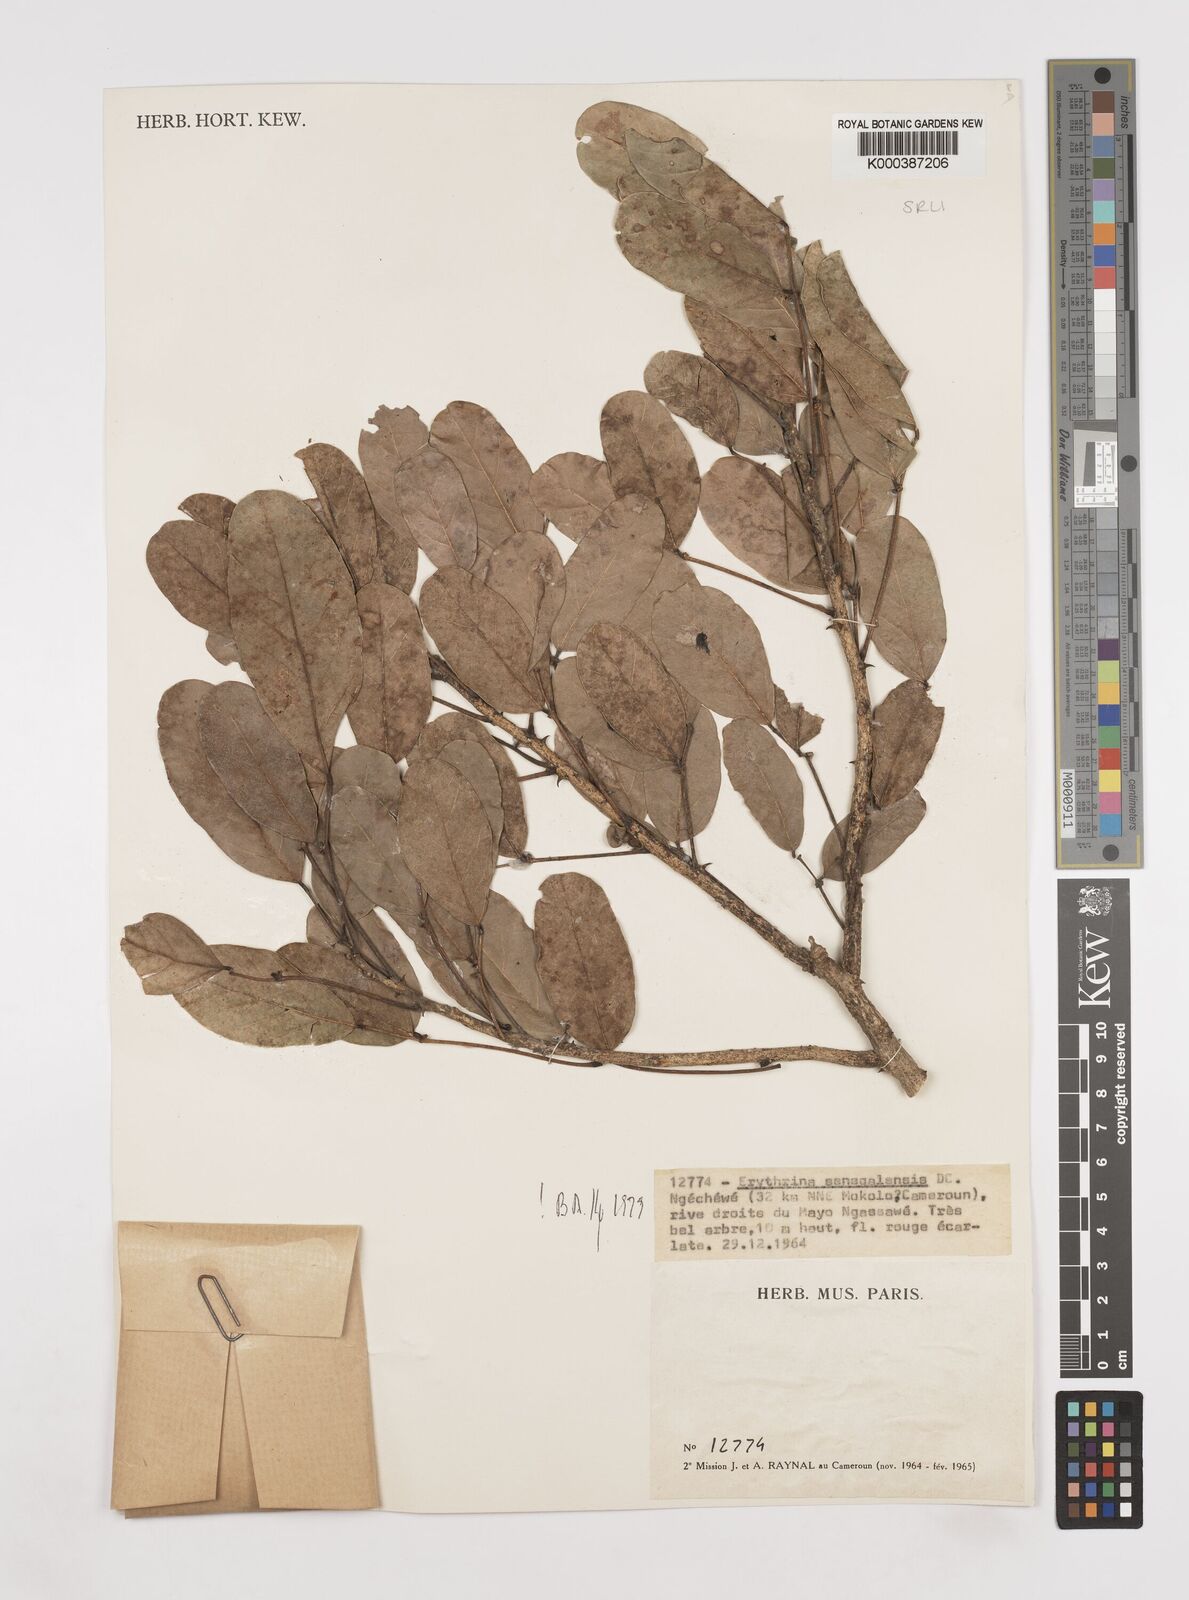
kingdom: Plantae
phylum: Tracheophyta
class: Magnoliopsida
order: Fabales
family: Fabaceae
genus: Erythrina
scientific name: Erythrina senegalensis
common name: Senegal coraltree
